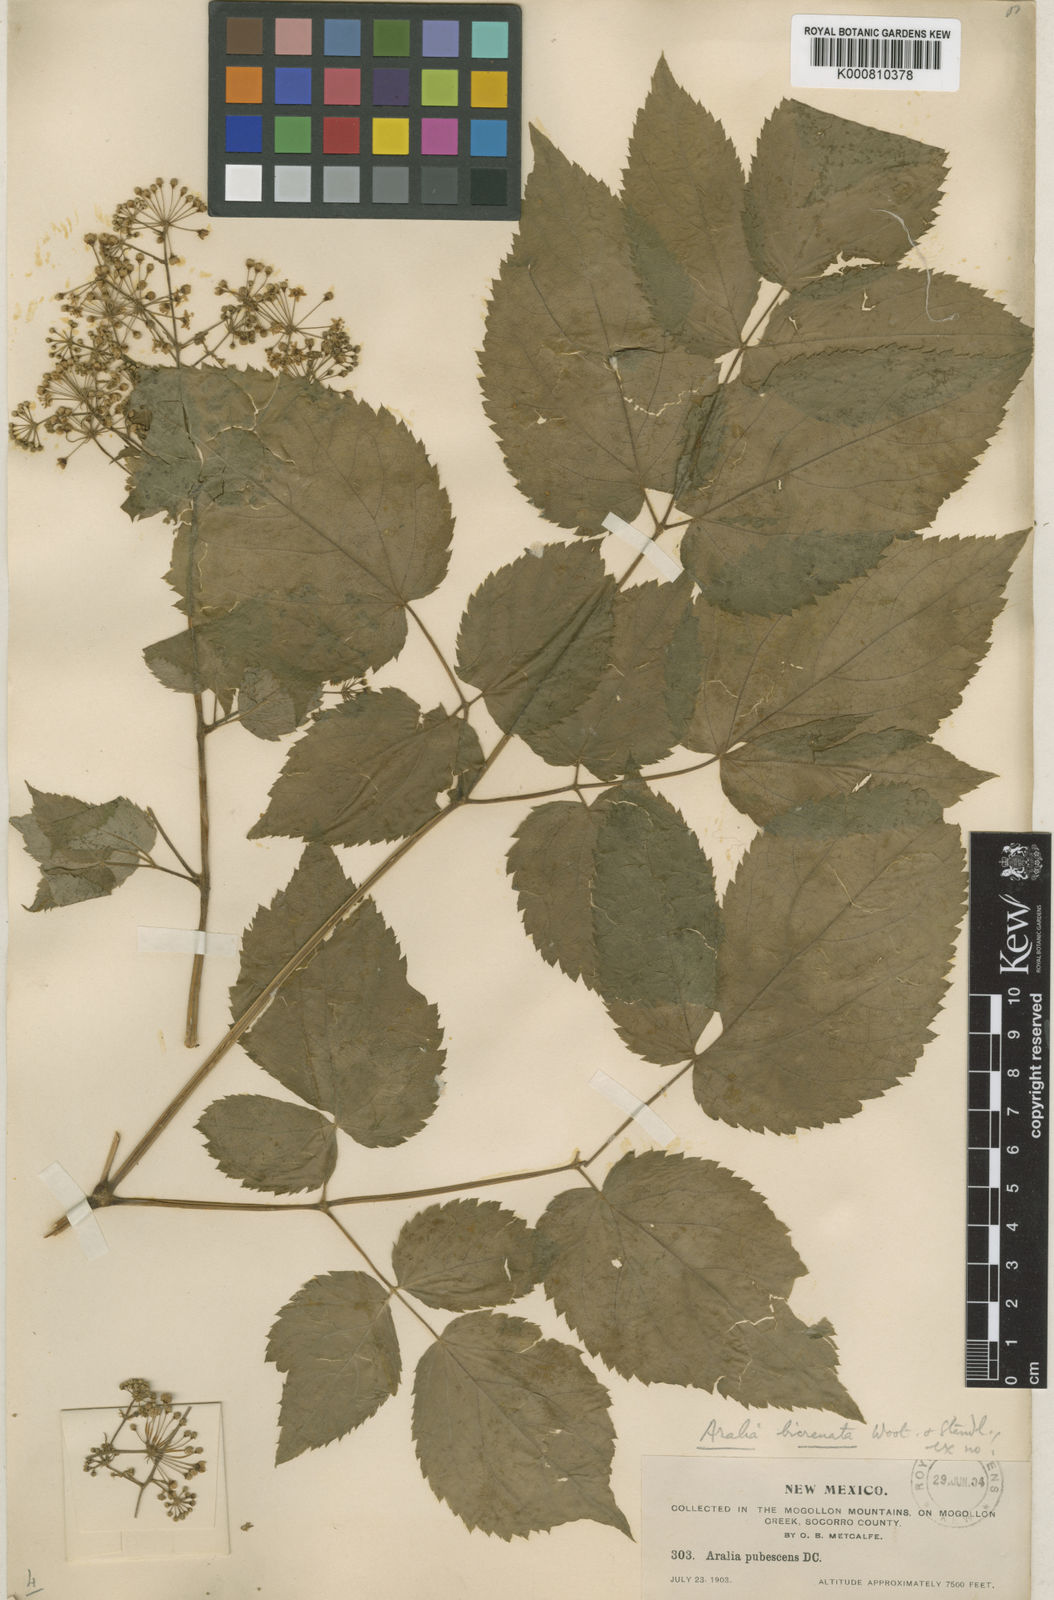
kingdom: Plantae
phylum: Tracheophyta
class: Magnoliopsida
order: Apiales
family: Araliaceae
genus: Aralia
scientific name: Aralia bicrenata
